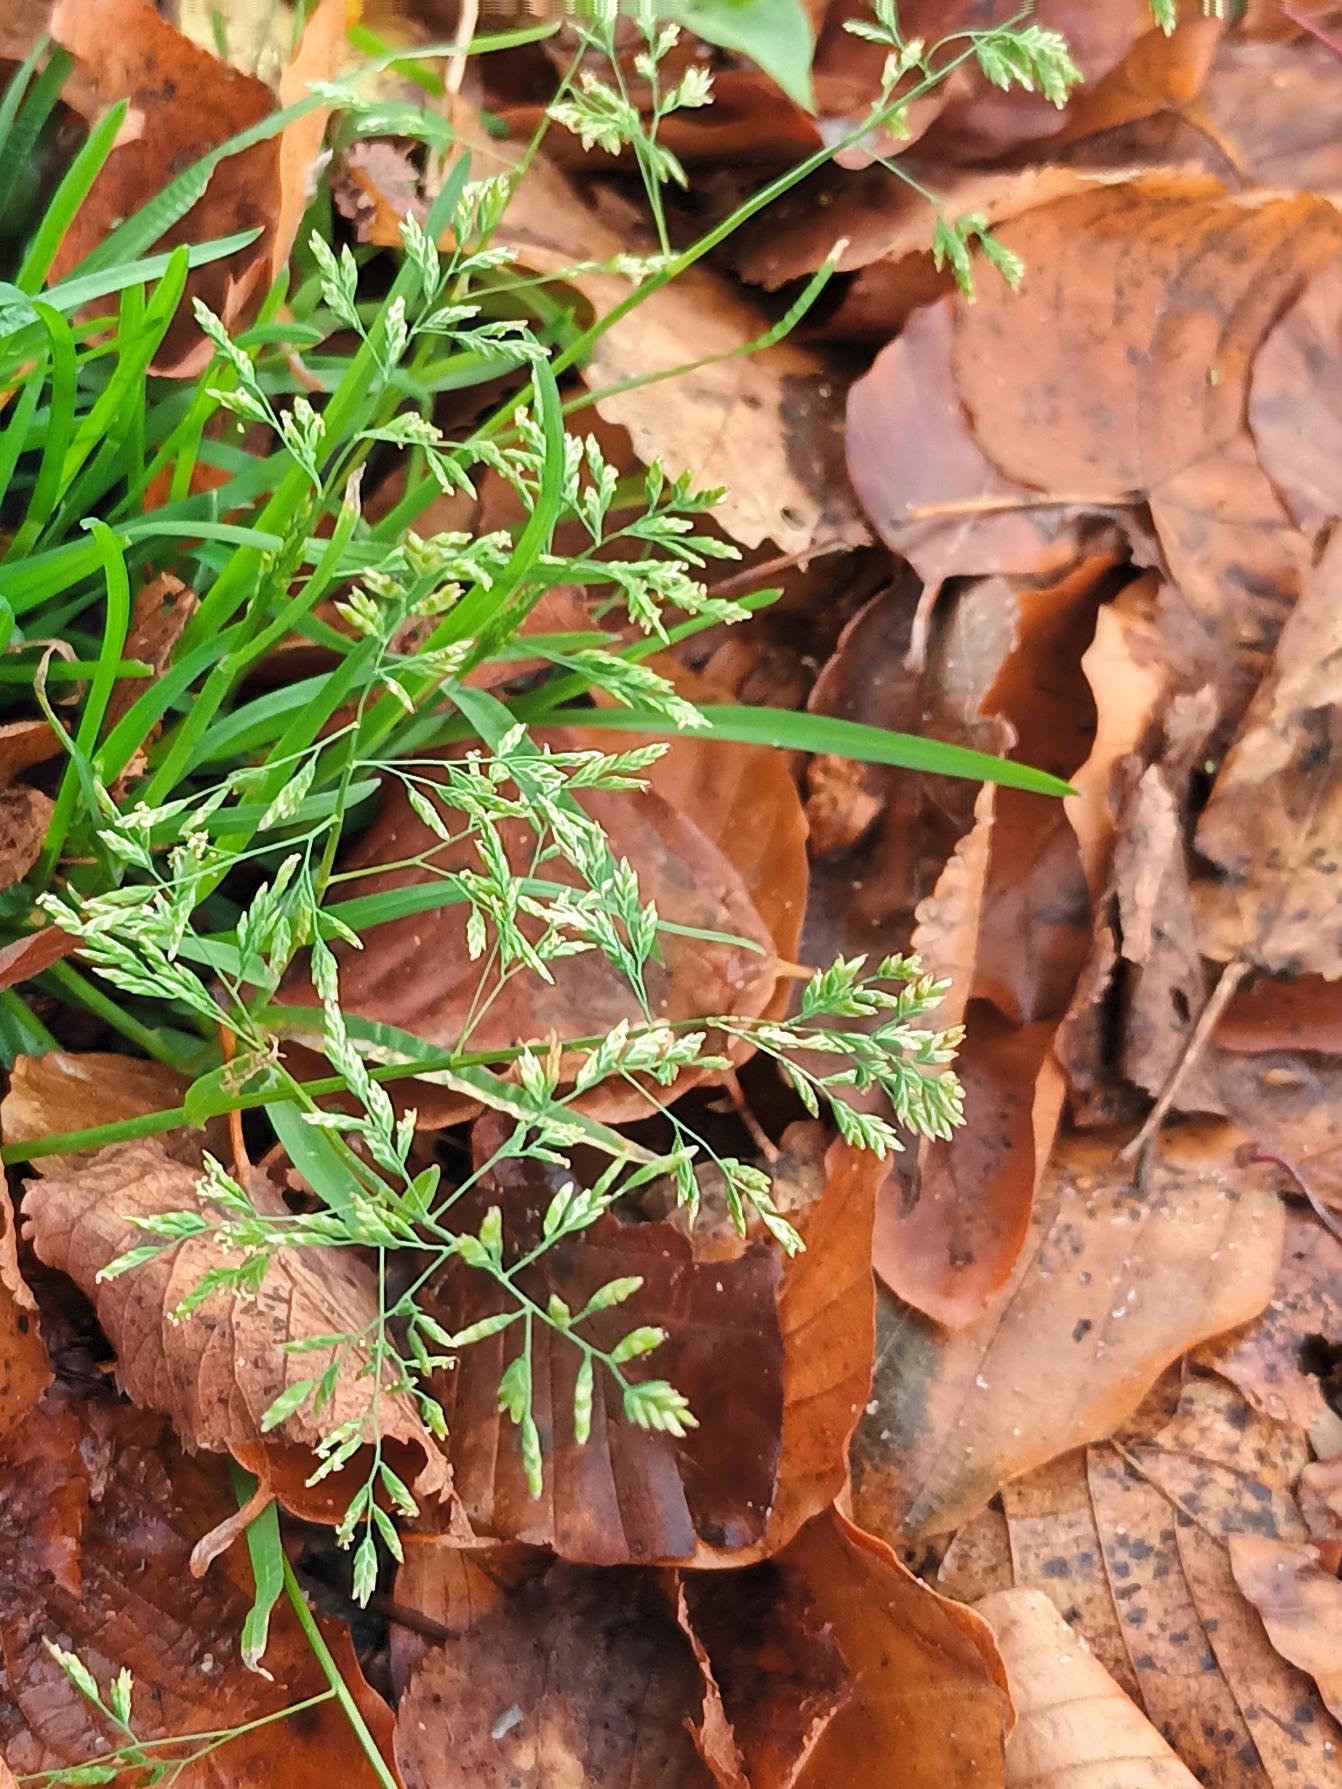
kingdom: Plantae
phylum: Tracheophyta
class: Liliopsida
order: Poales
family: Poaceae
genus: Poa
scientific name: Poa annua
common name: Enårig rapgræs
